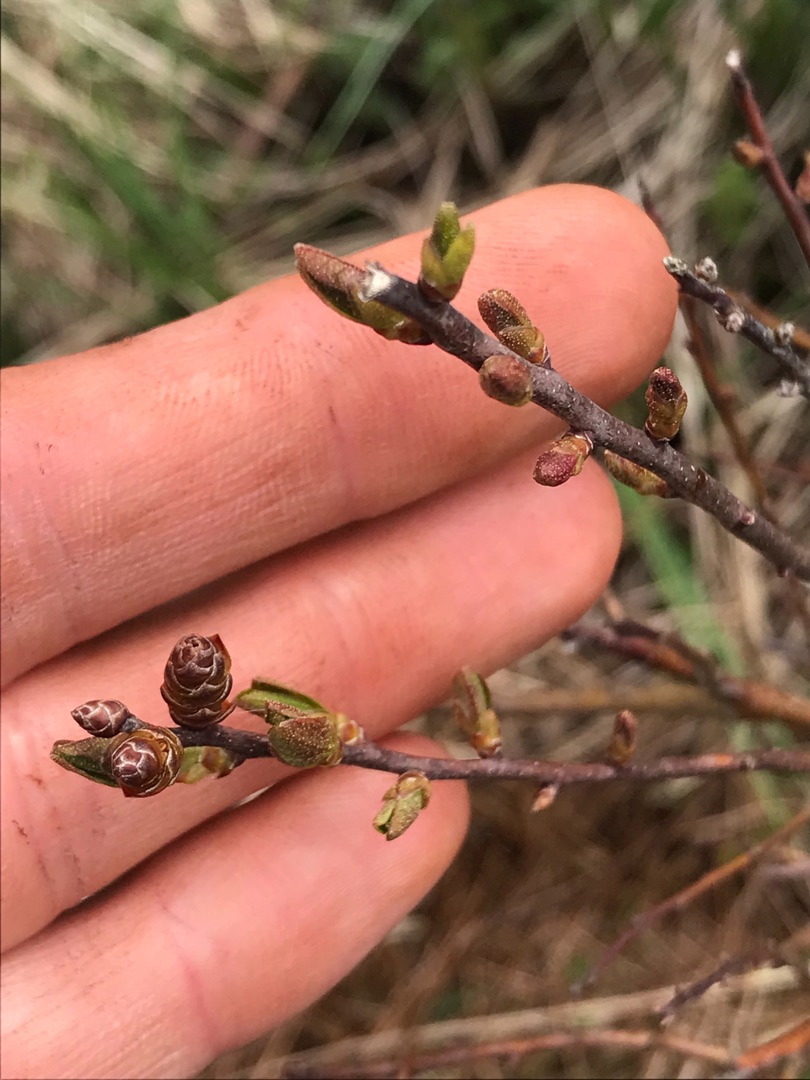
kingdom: Plantae
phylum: Tracheophyta
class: Magnoliopsida
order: Fagales
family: Myricaceae
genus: Myrica
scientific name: Myrica gale
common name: Pors
